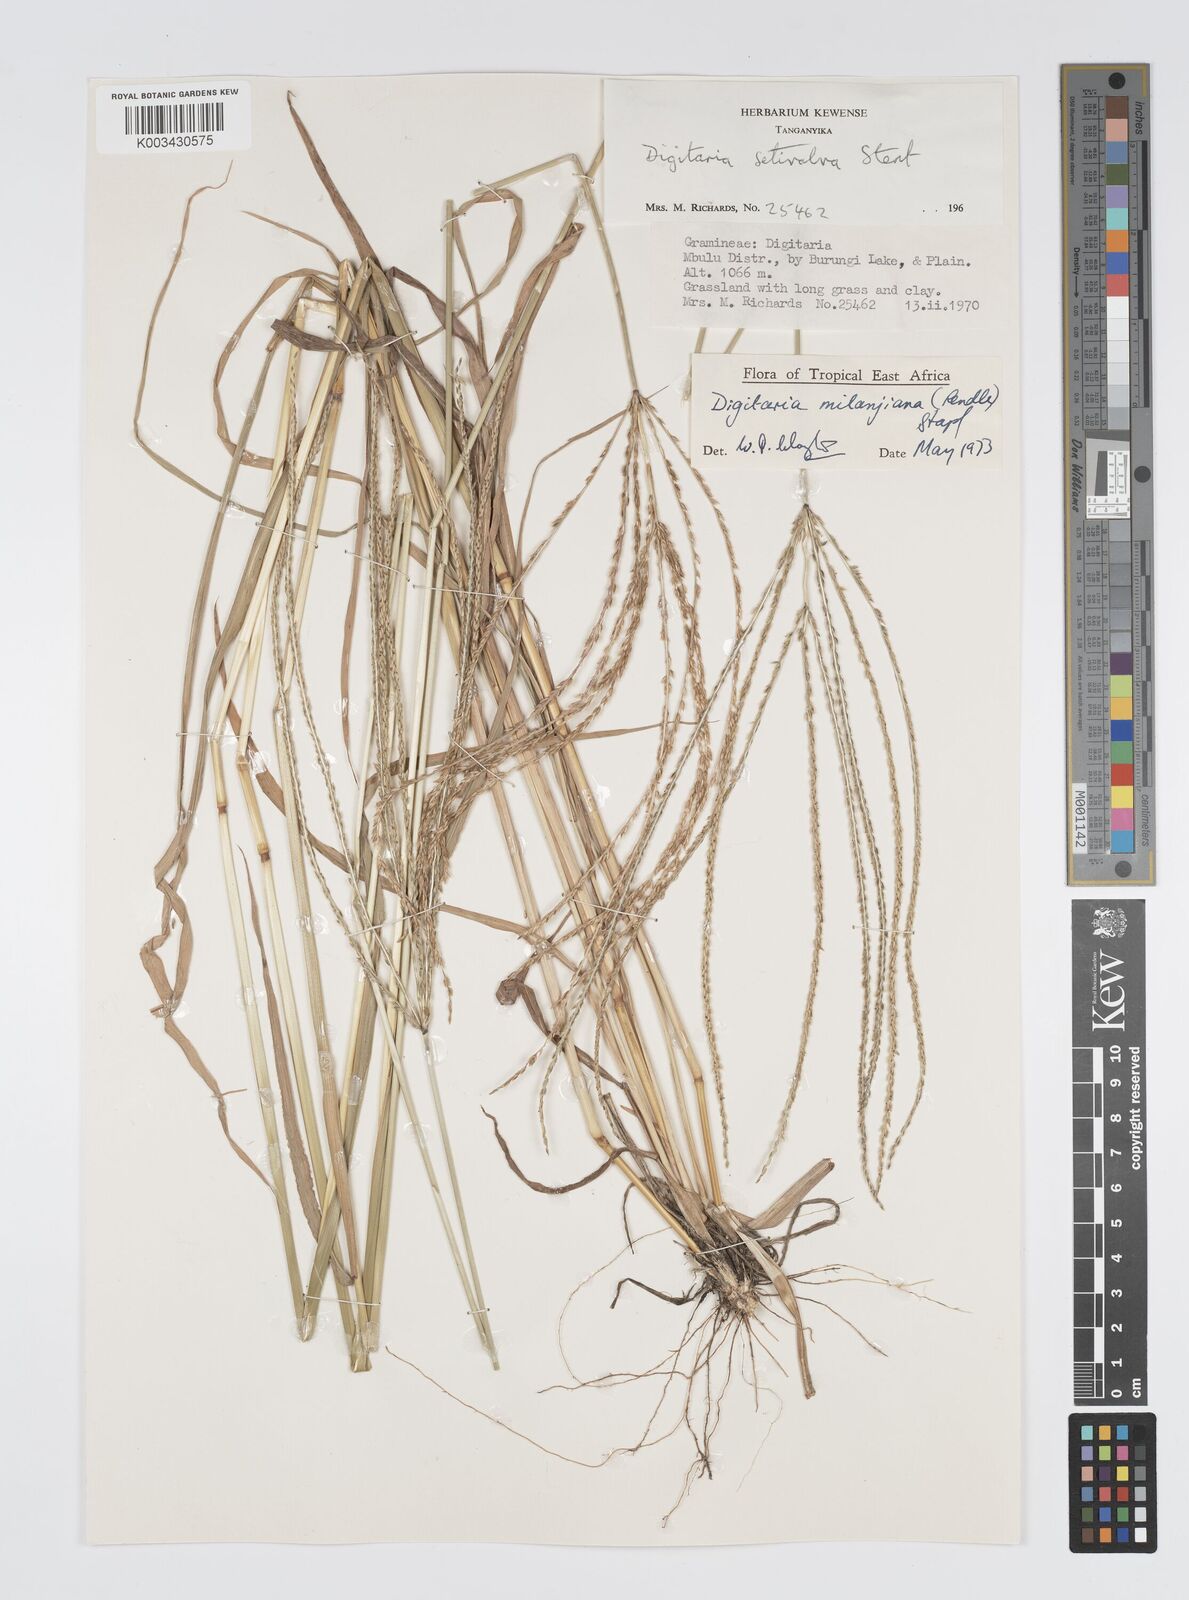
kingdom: Plantae
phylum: Tracheophyta
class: Liliopsida
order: Poales
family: Poaceae
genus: Digitaria
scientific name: Digitaria milanjiana
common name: Madagascar crabgrass
